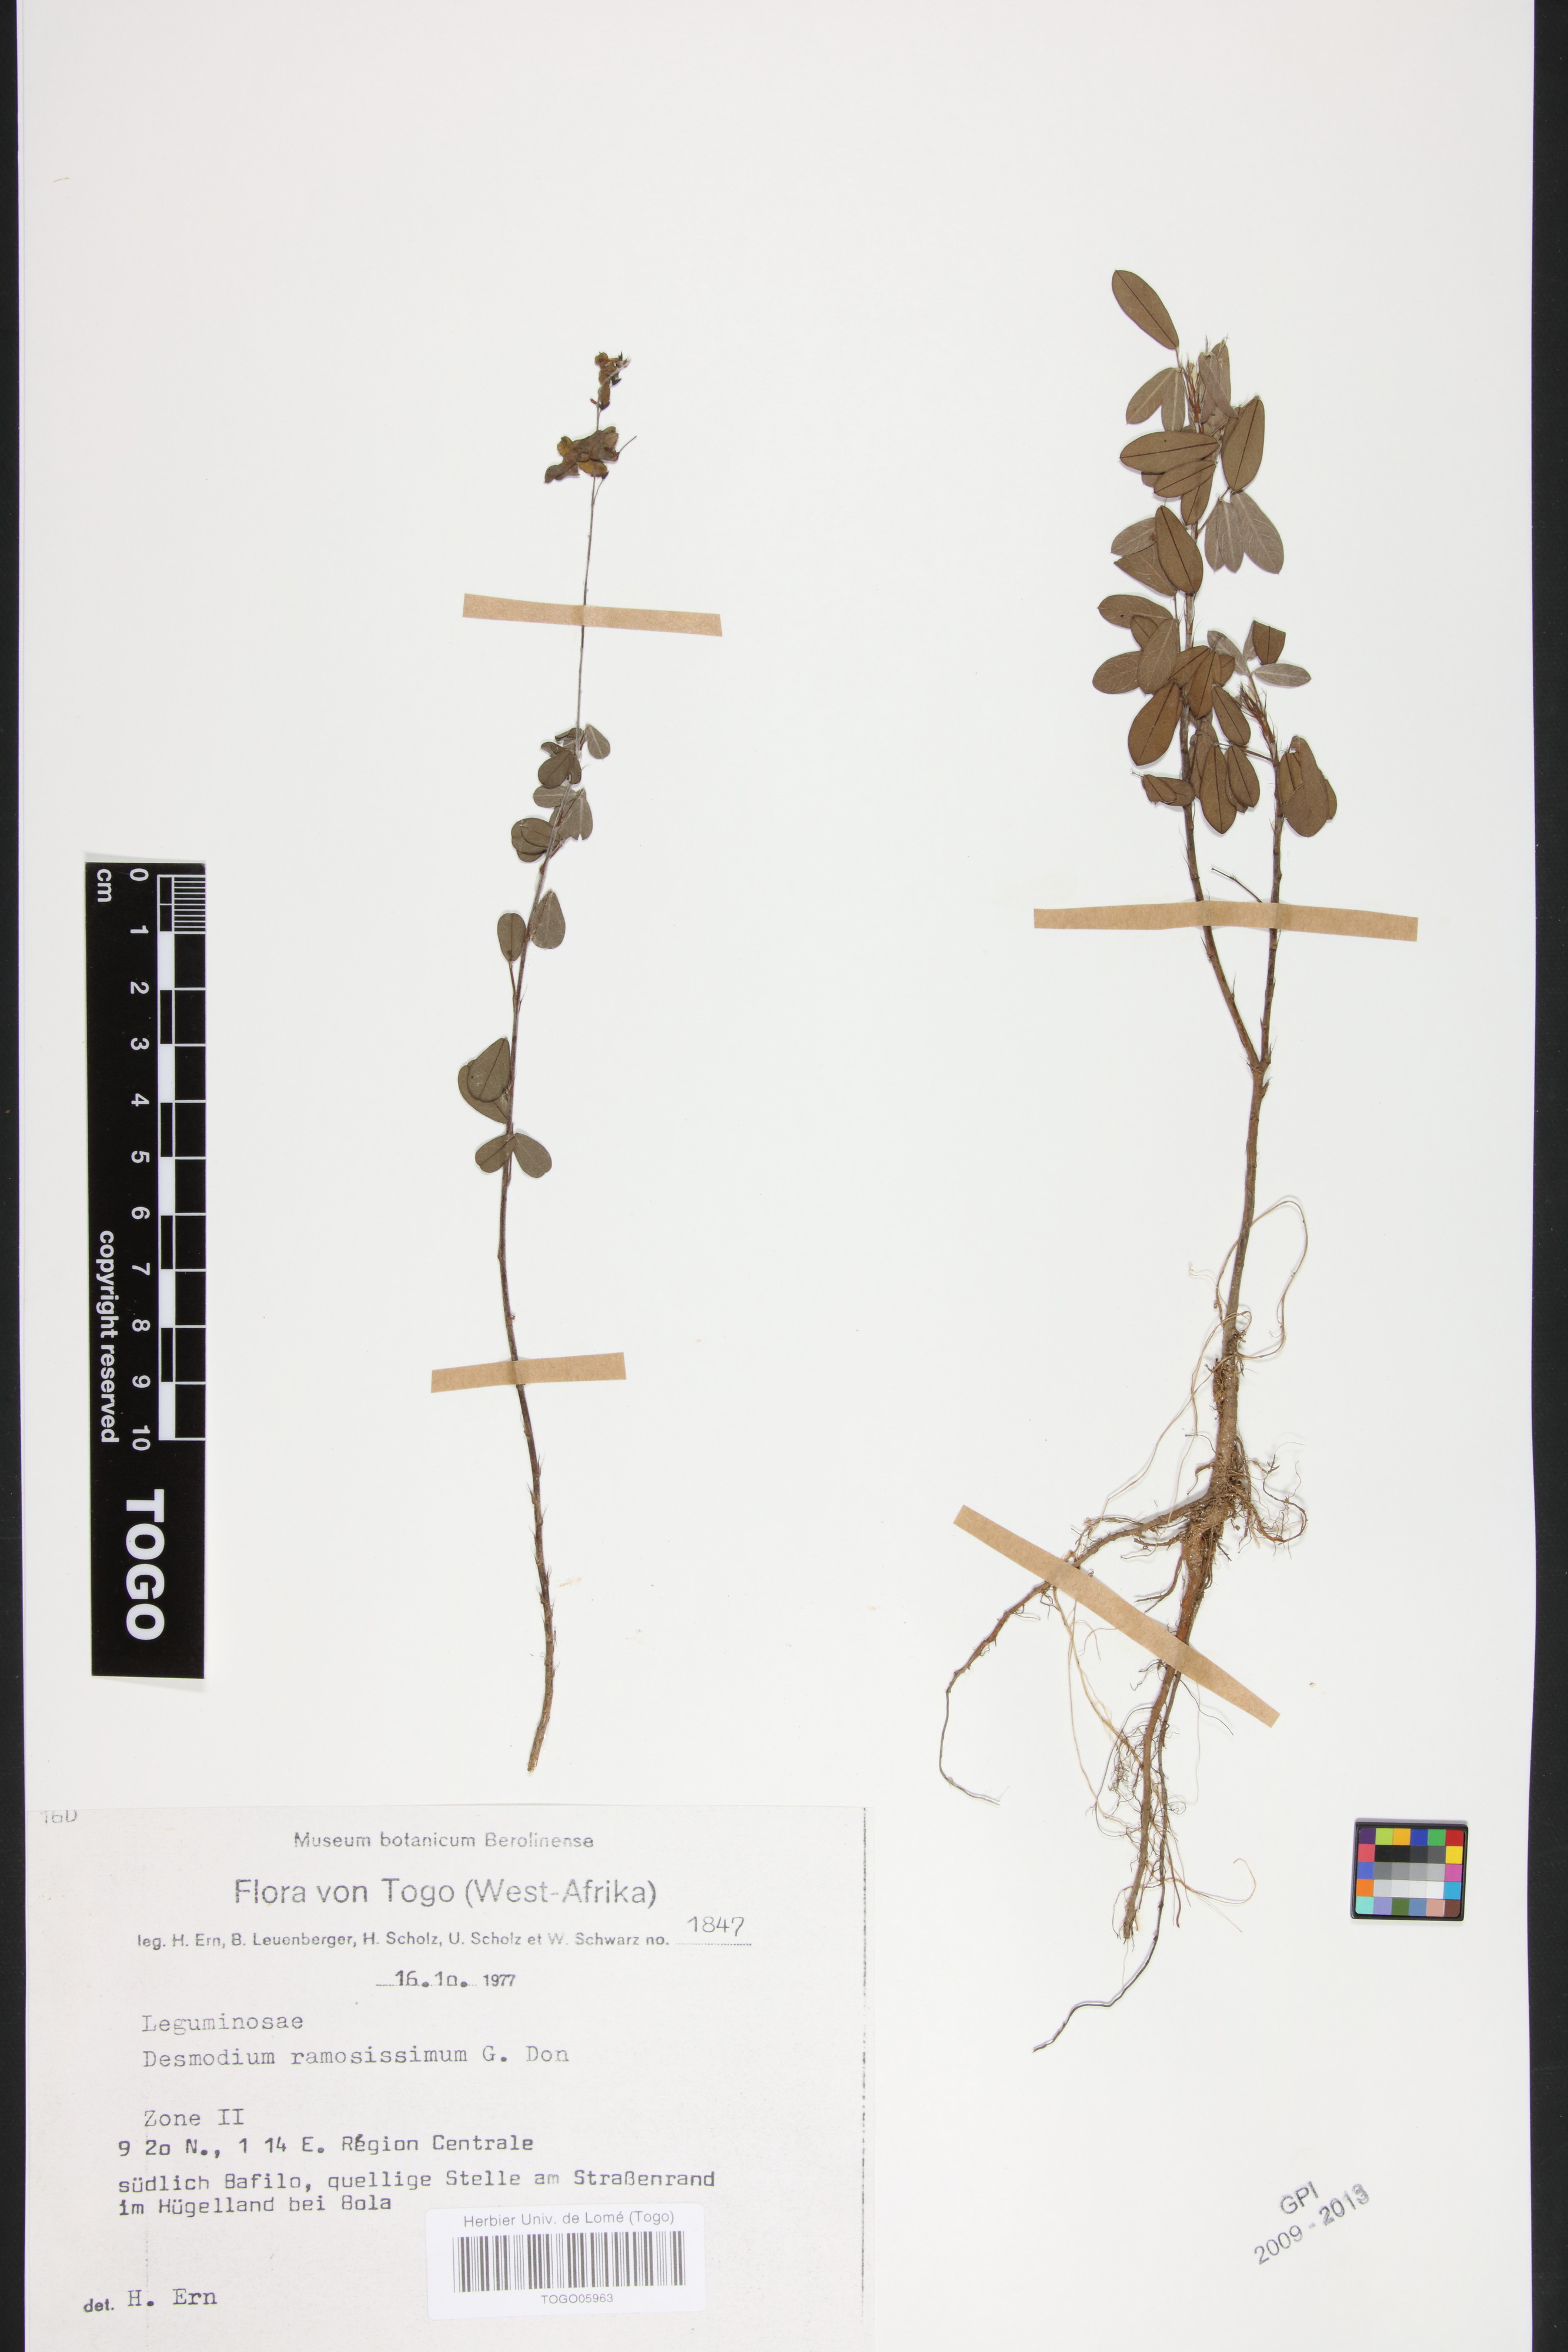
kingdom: Plantae
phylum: Tracheophyta
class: Magnoliopsida
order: Fabales
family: Fabaceae
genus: Grona
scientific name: Grona ramosissima
